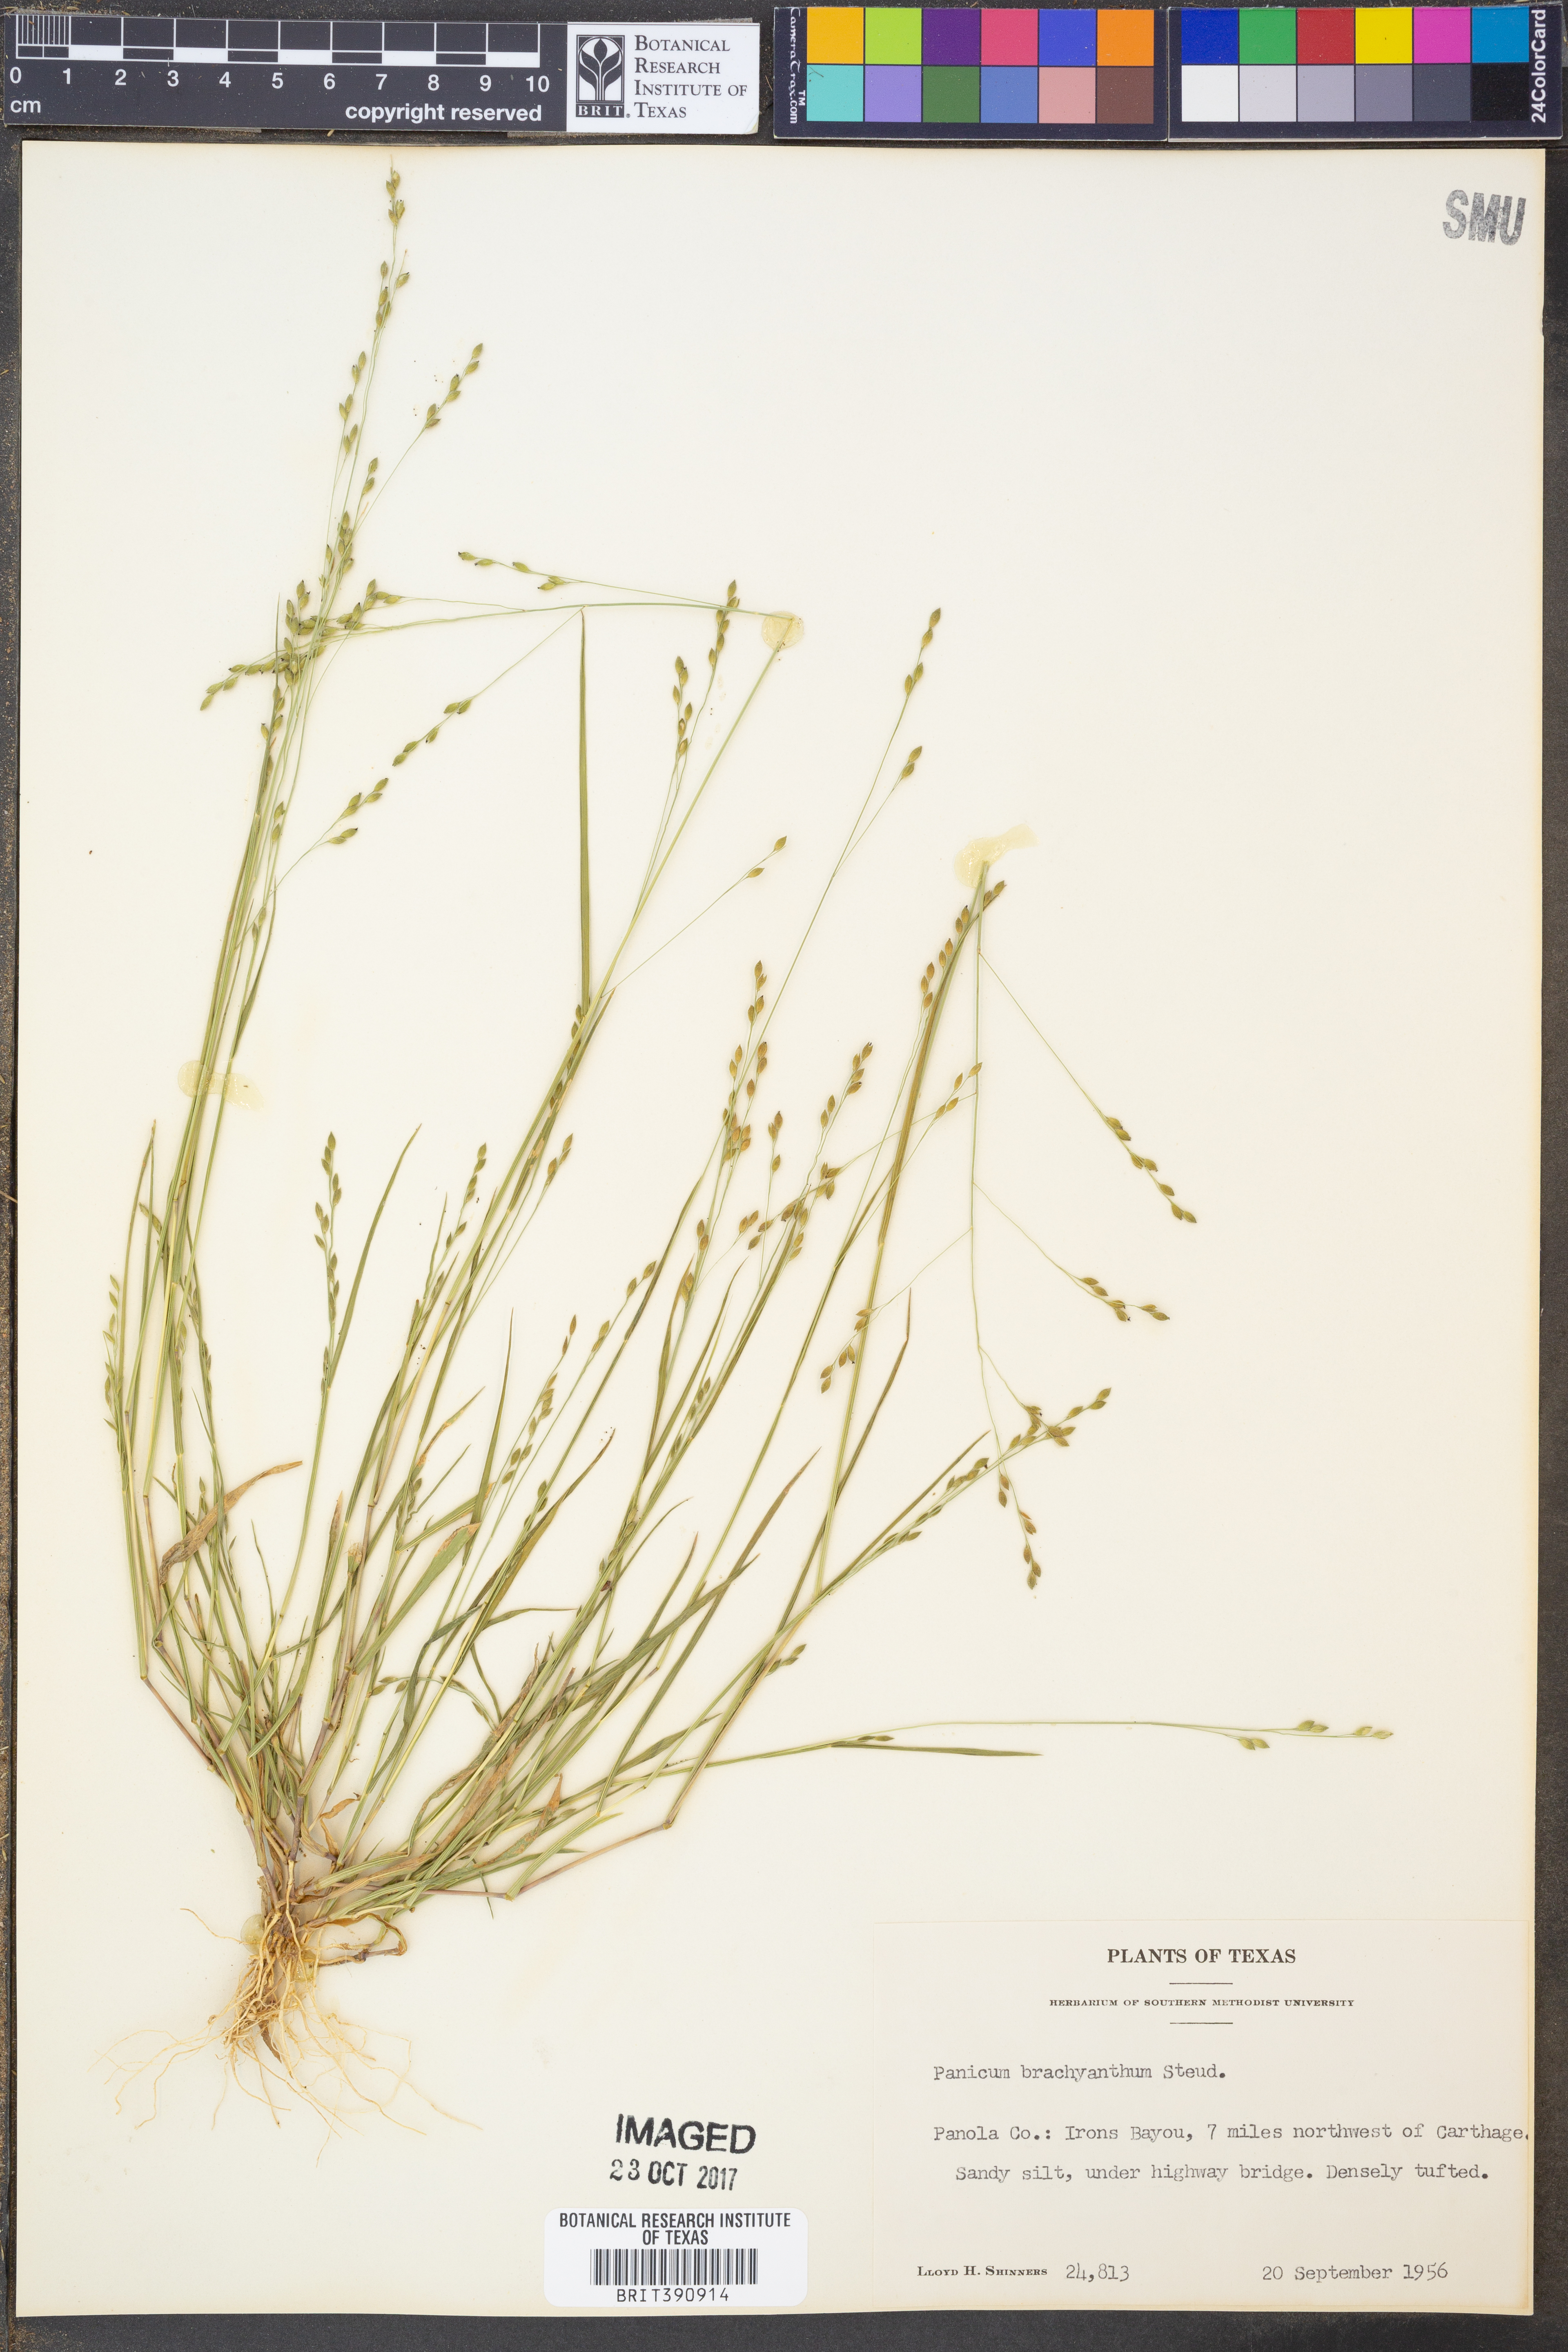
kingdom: Plantae
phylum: Tracheophyta
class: Liliopsida
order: Poales
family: Poaceae
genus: Kellochloa
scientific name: Kellochloa brachyantha
